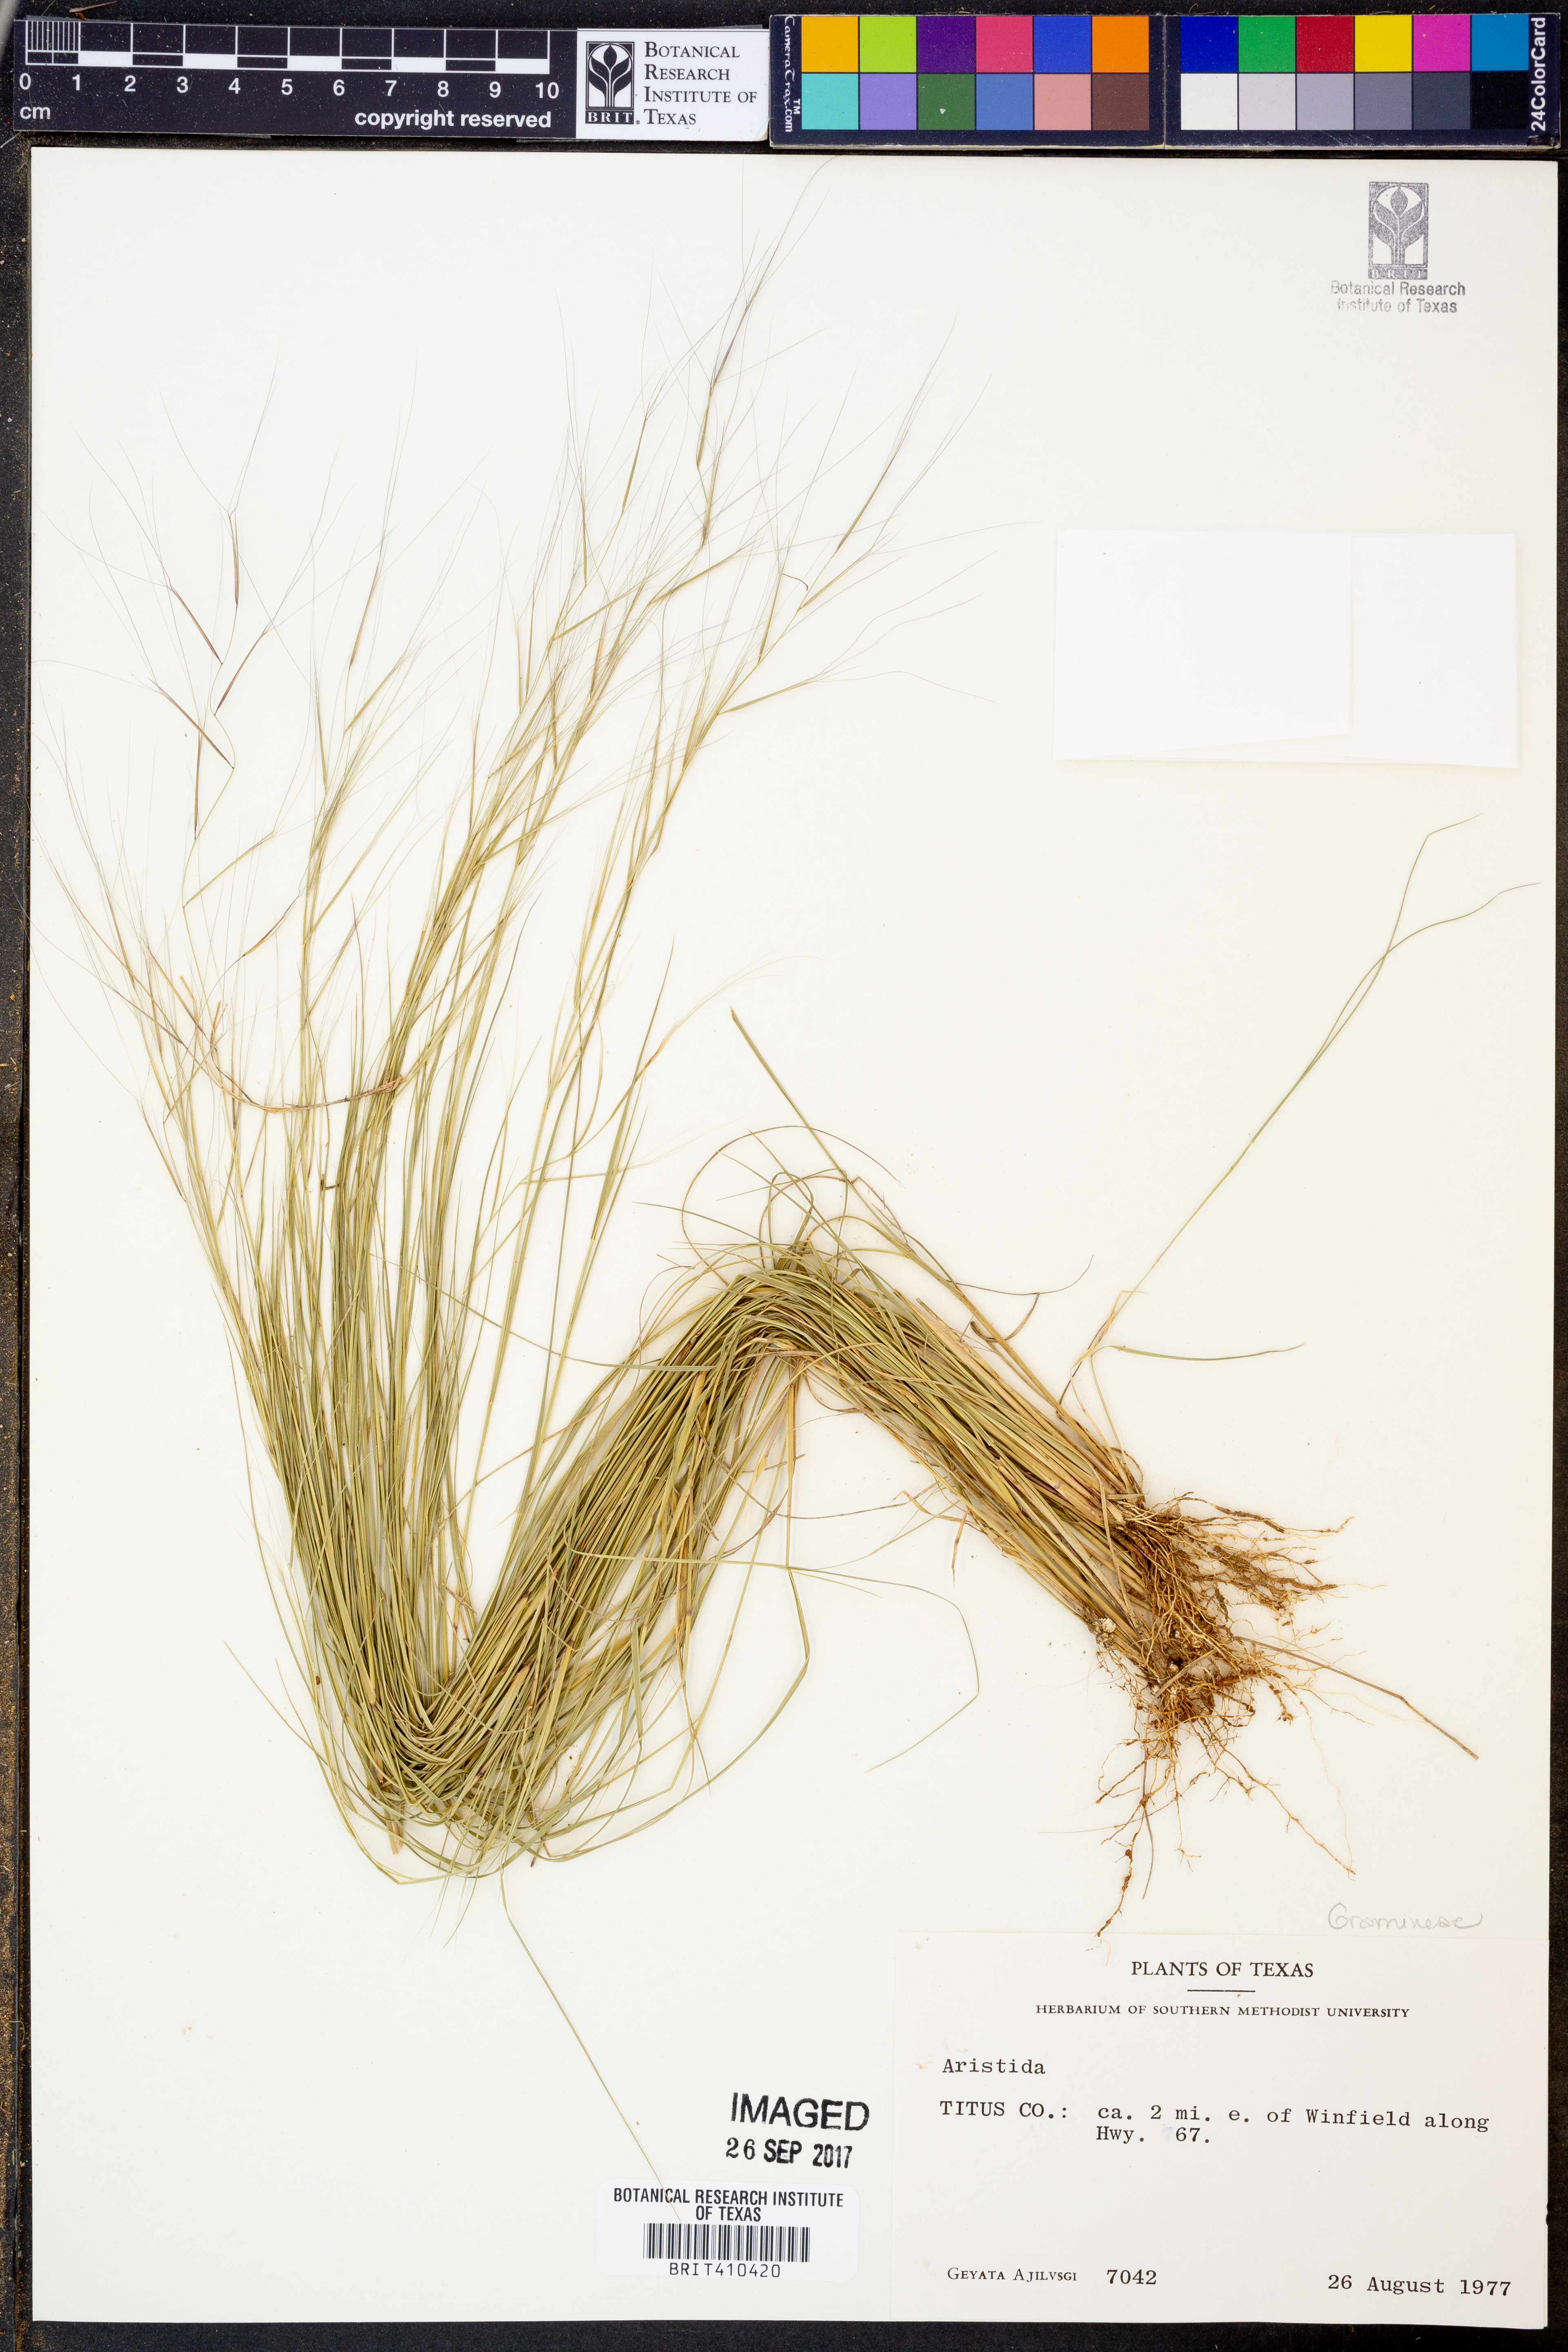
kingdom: Plantae
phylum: Tracheophyta
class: Liliopsida
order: Poales
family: Poaceae
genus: Aristida
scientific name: Aristida
